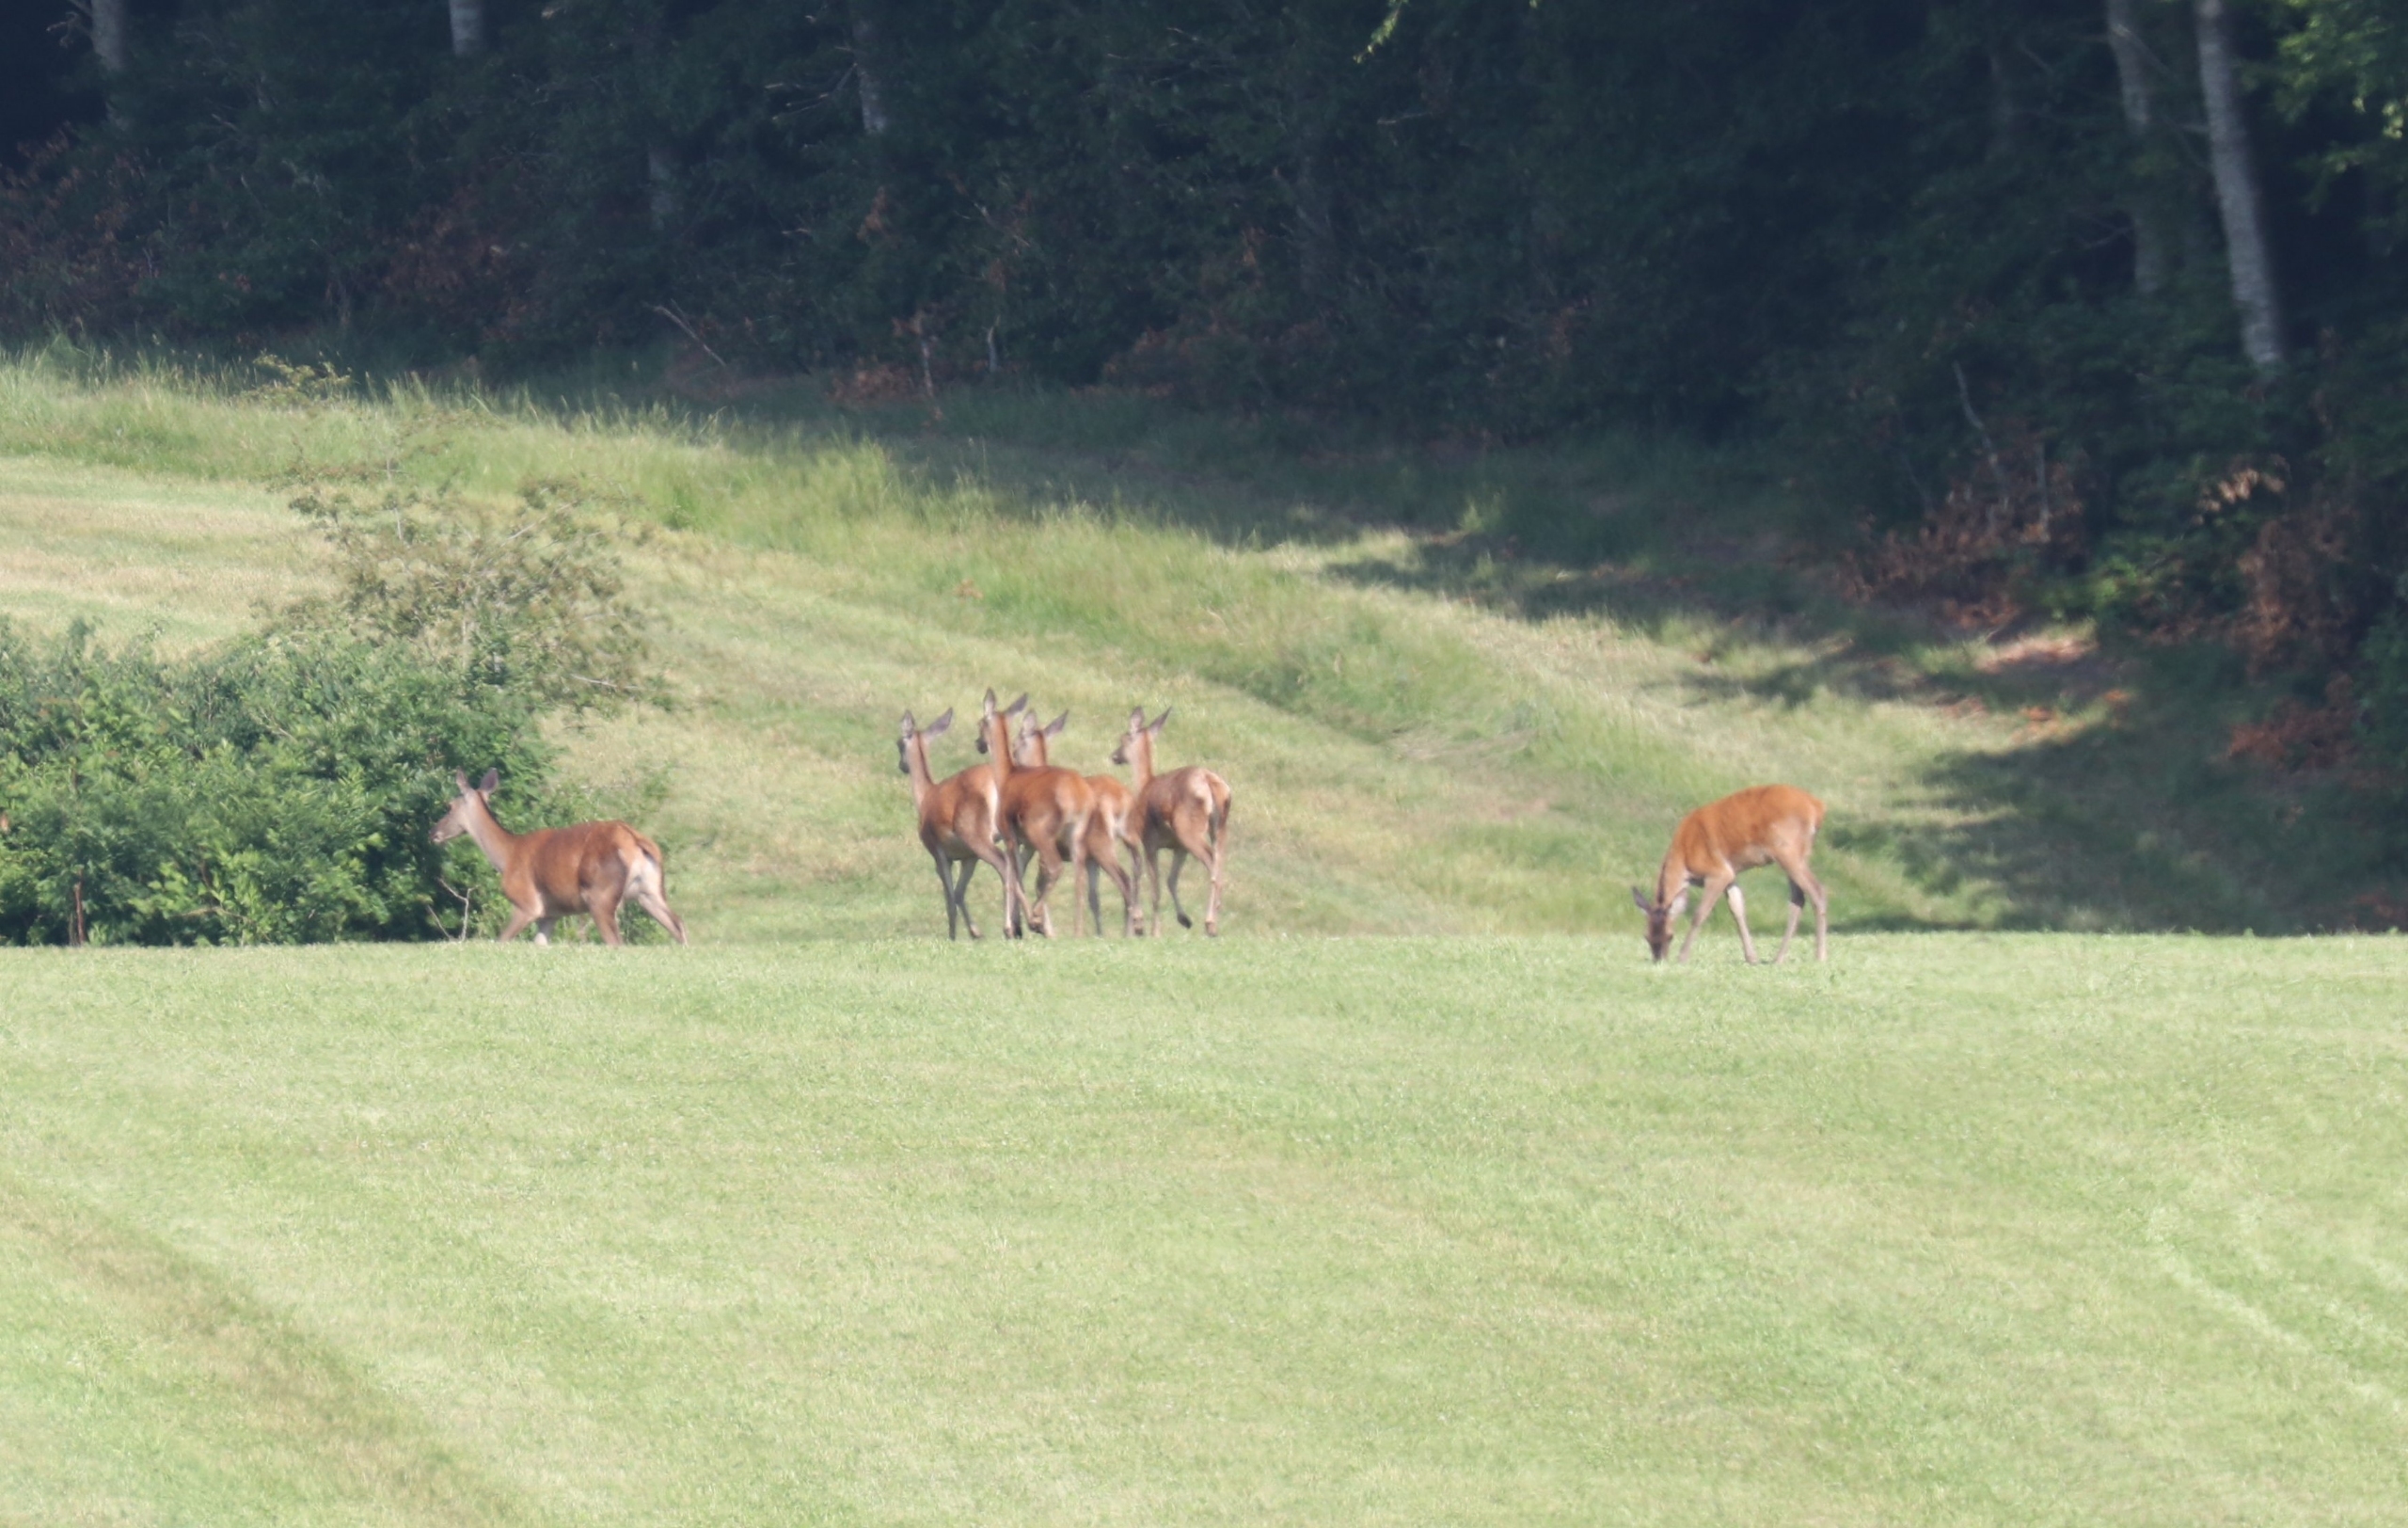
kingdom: Animalia
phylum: Chordata
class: Mammalia
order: Artiodactyla
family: Cervidae
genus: Cervus
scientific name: Cervus elaphus
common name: Krondyr
